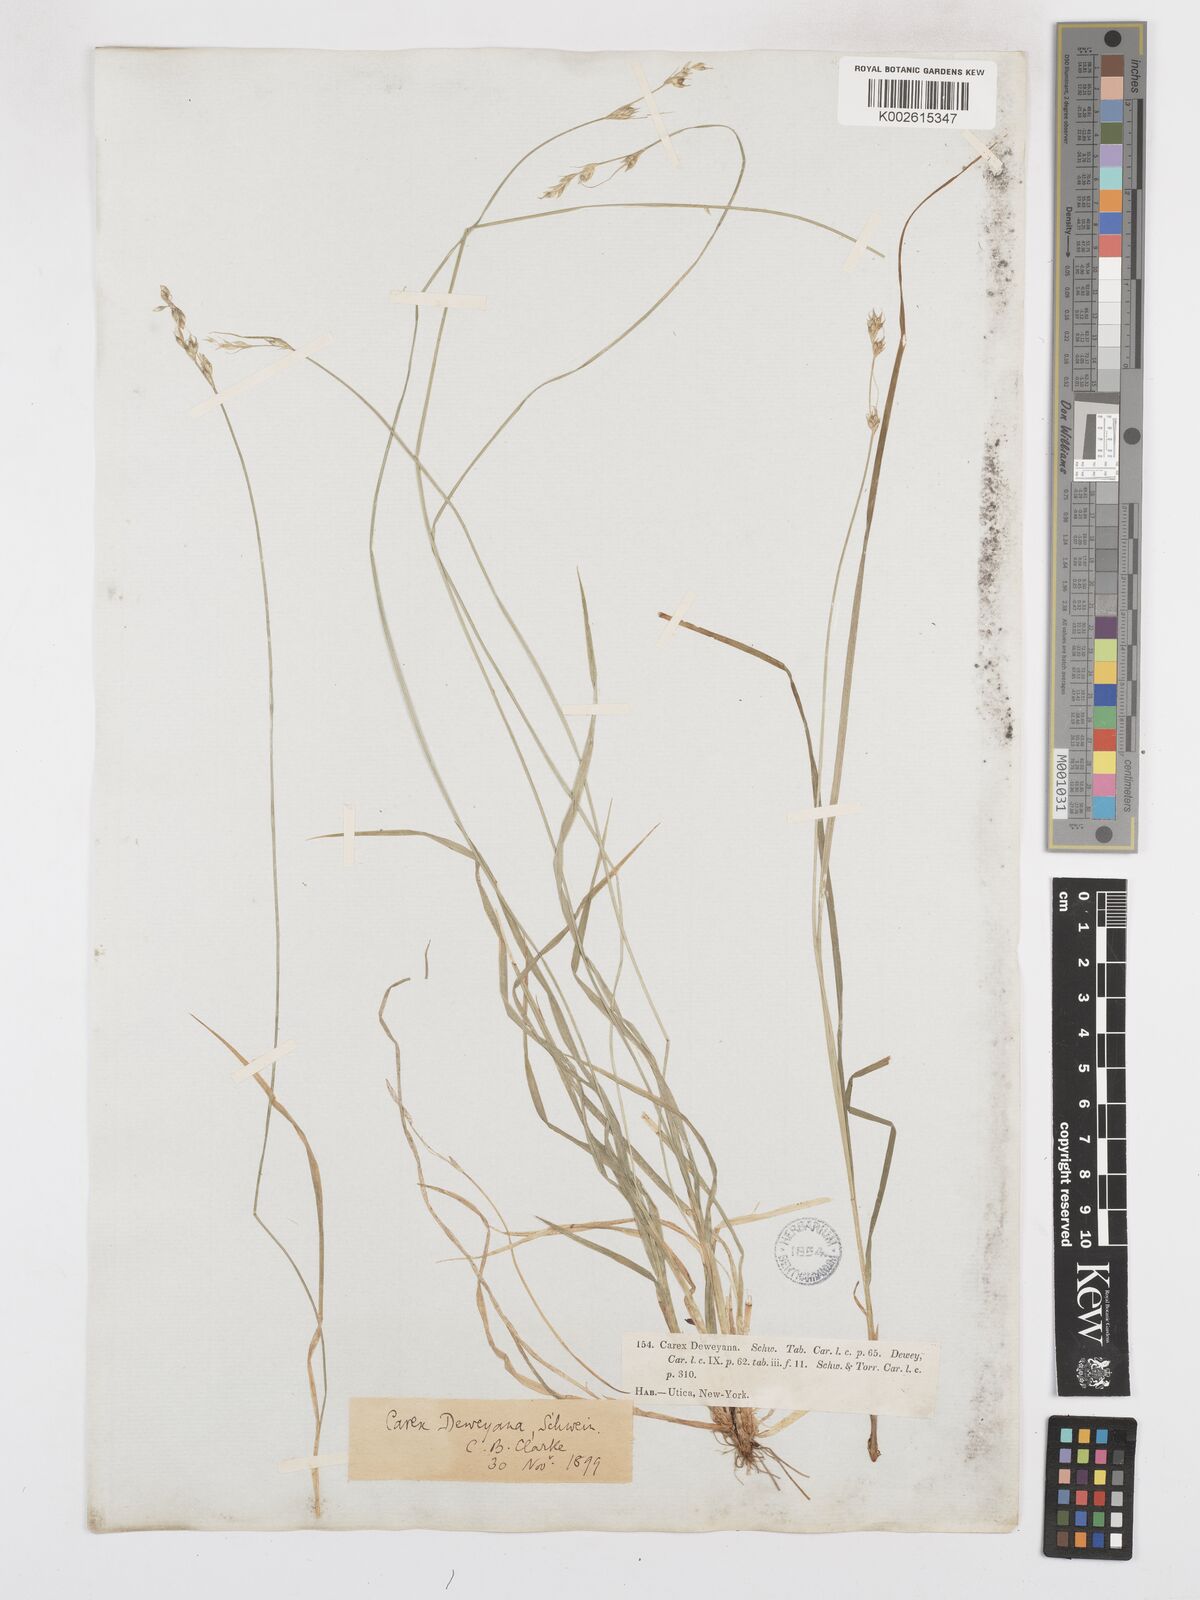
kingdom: Plantae
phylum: Tracheophyta
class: Liliopsida
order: Poales
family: Cyperaceae
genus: Carex
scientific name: Carex deweyana
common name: Dewey's sedge
